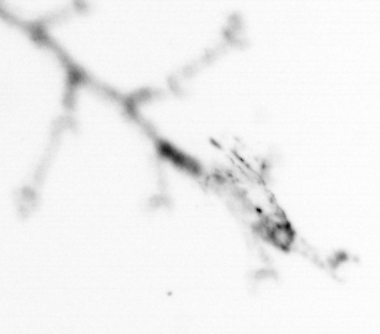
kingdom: Animalia
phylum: Cnidaria
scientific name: Cnidaria
